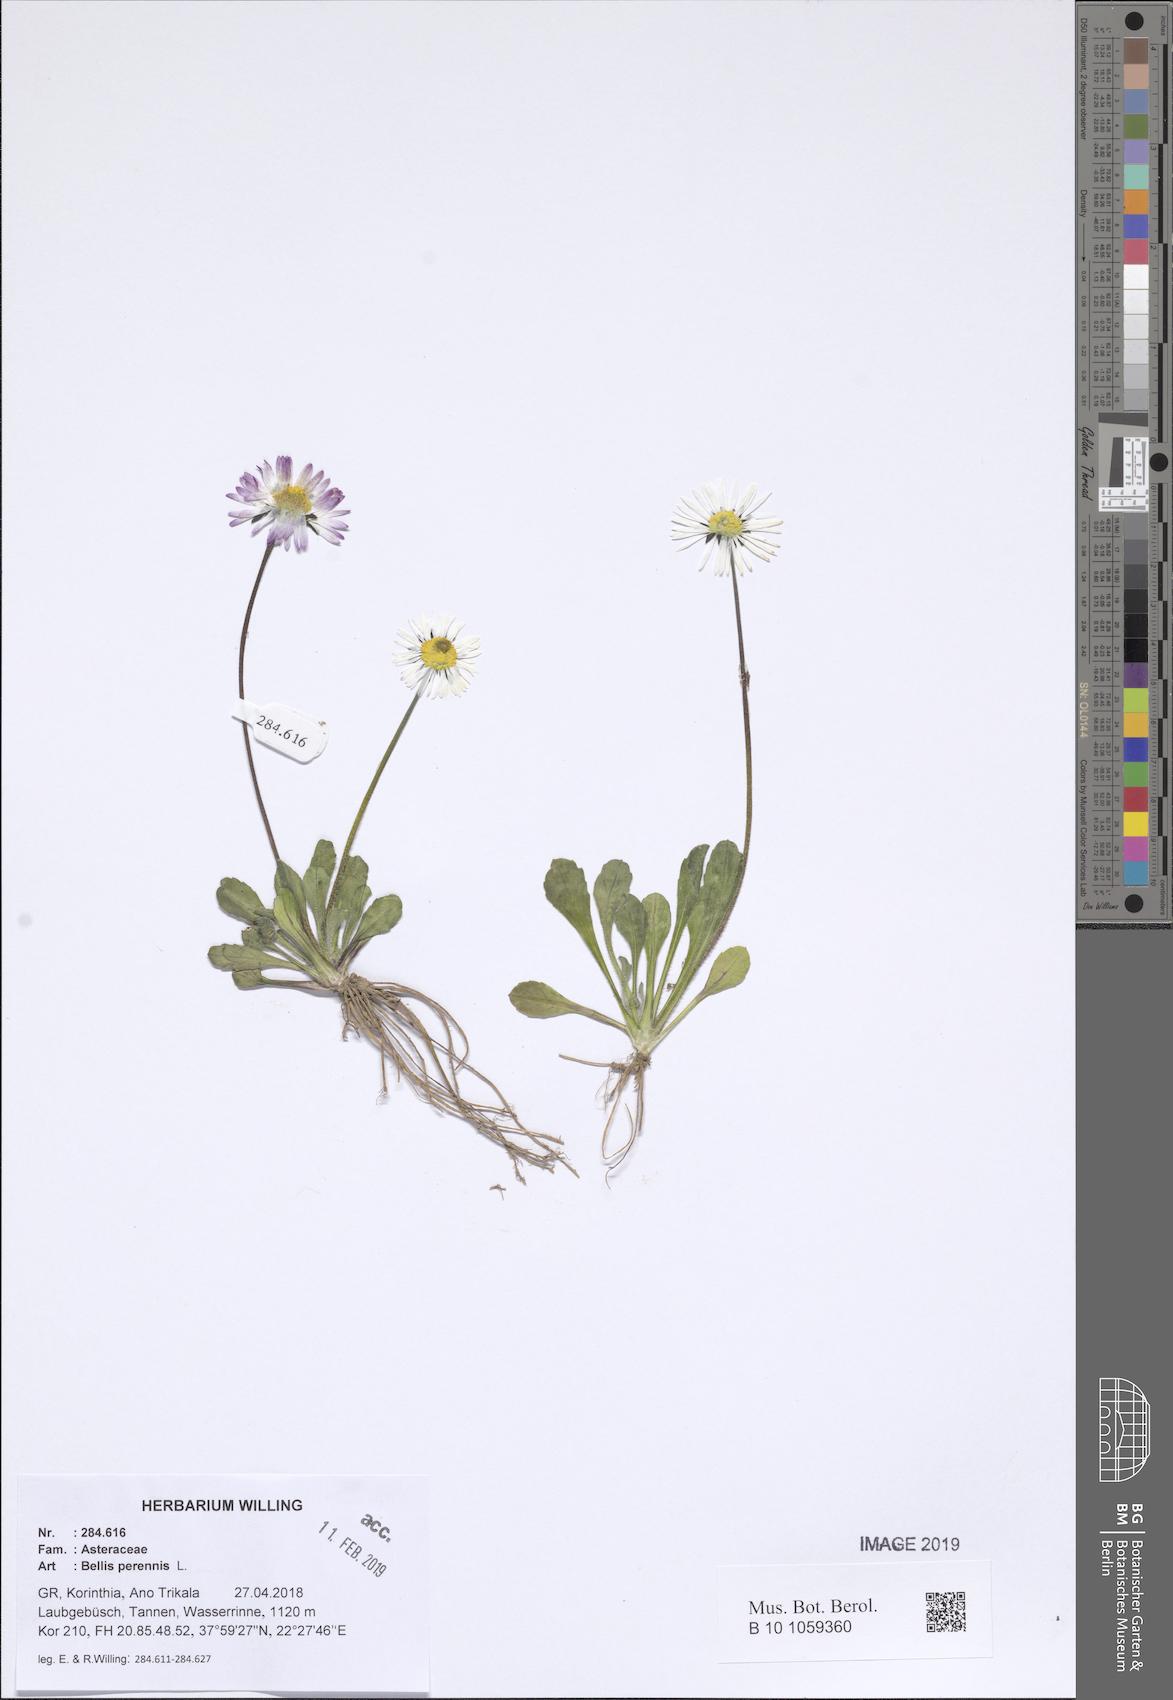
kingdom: Plantae
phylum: Tracheophyta
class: Magnoliopsida
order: Asterales
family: Asteraceae
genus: Bellis
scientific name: Bellis perennis
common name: Lawndaisy
